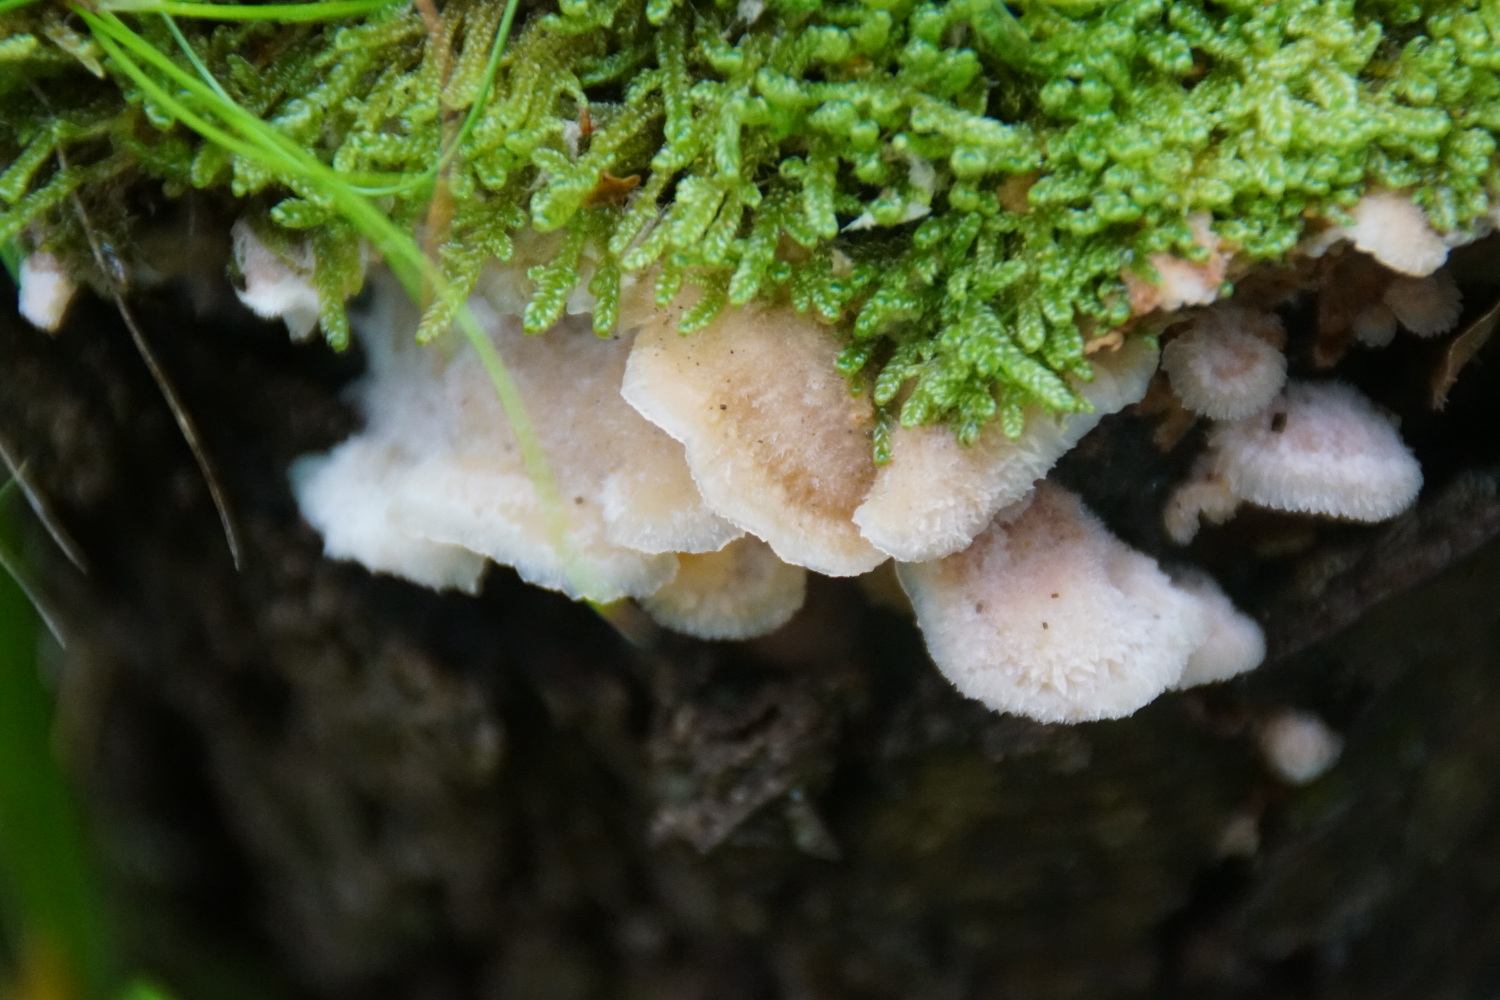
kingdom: Fungi
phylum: Basidiomycota
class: Agaricomycetes
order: Polyporales
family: Meruliaceae
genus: Phlebia
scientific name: Phlebia tremellosa
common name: bævrende åresvamp
